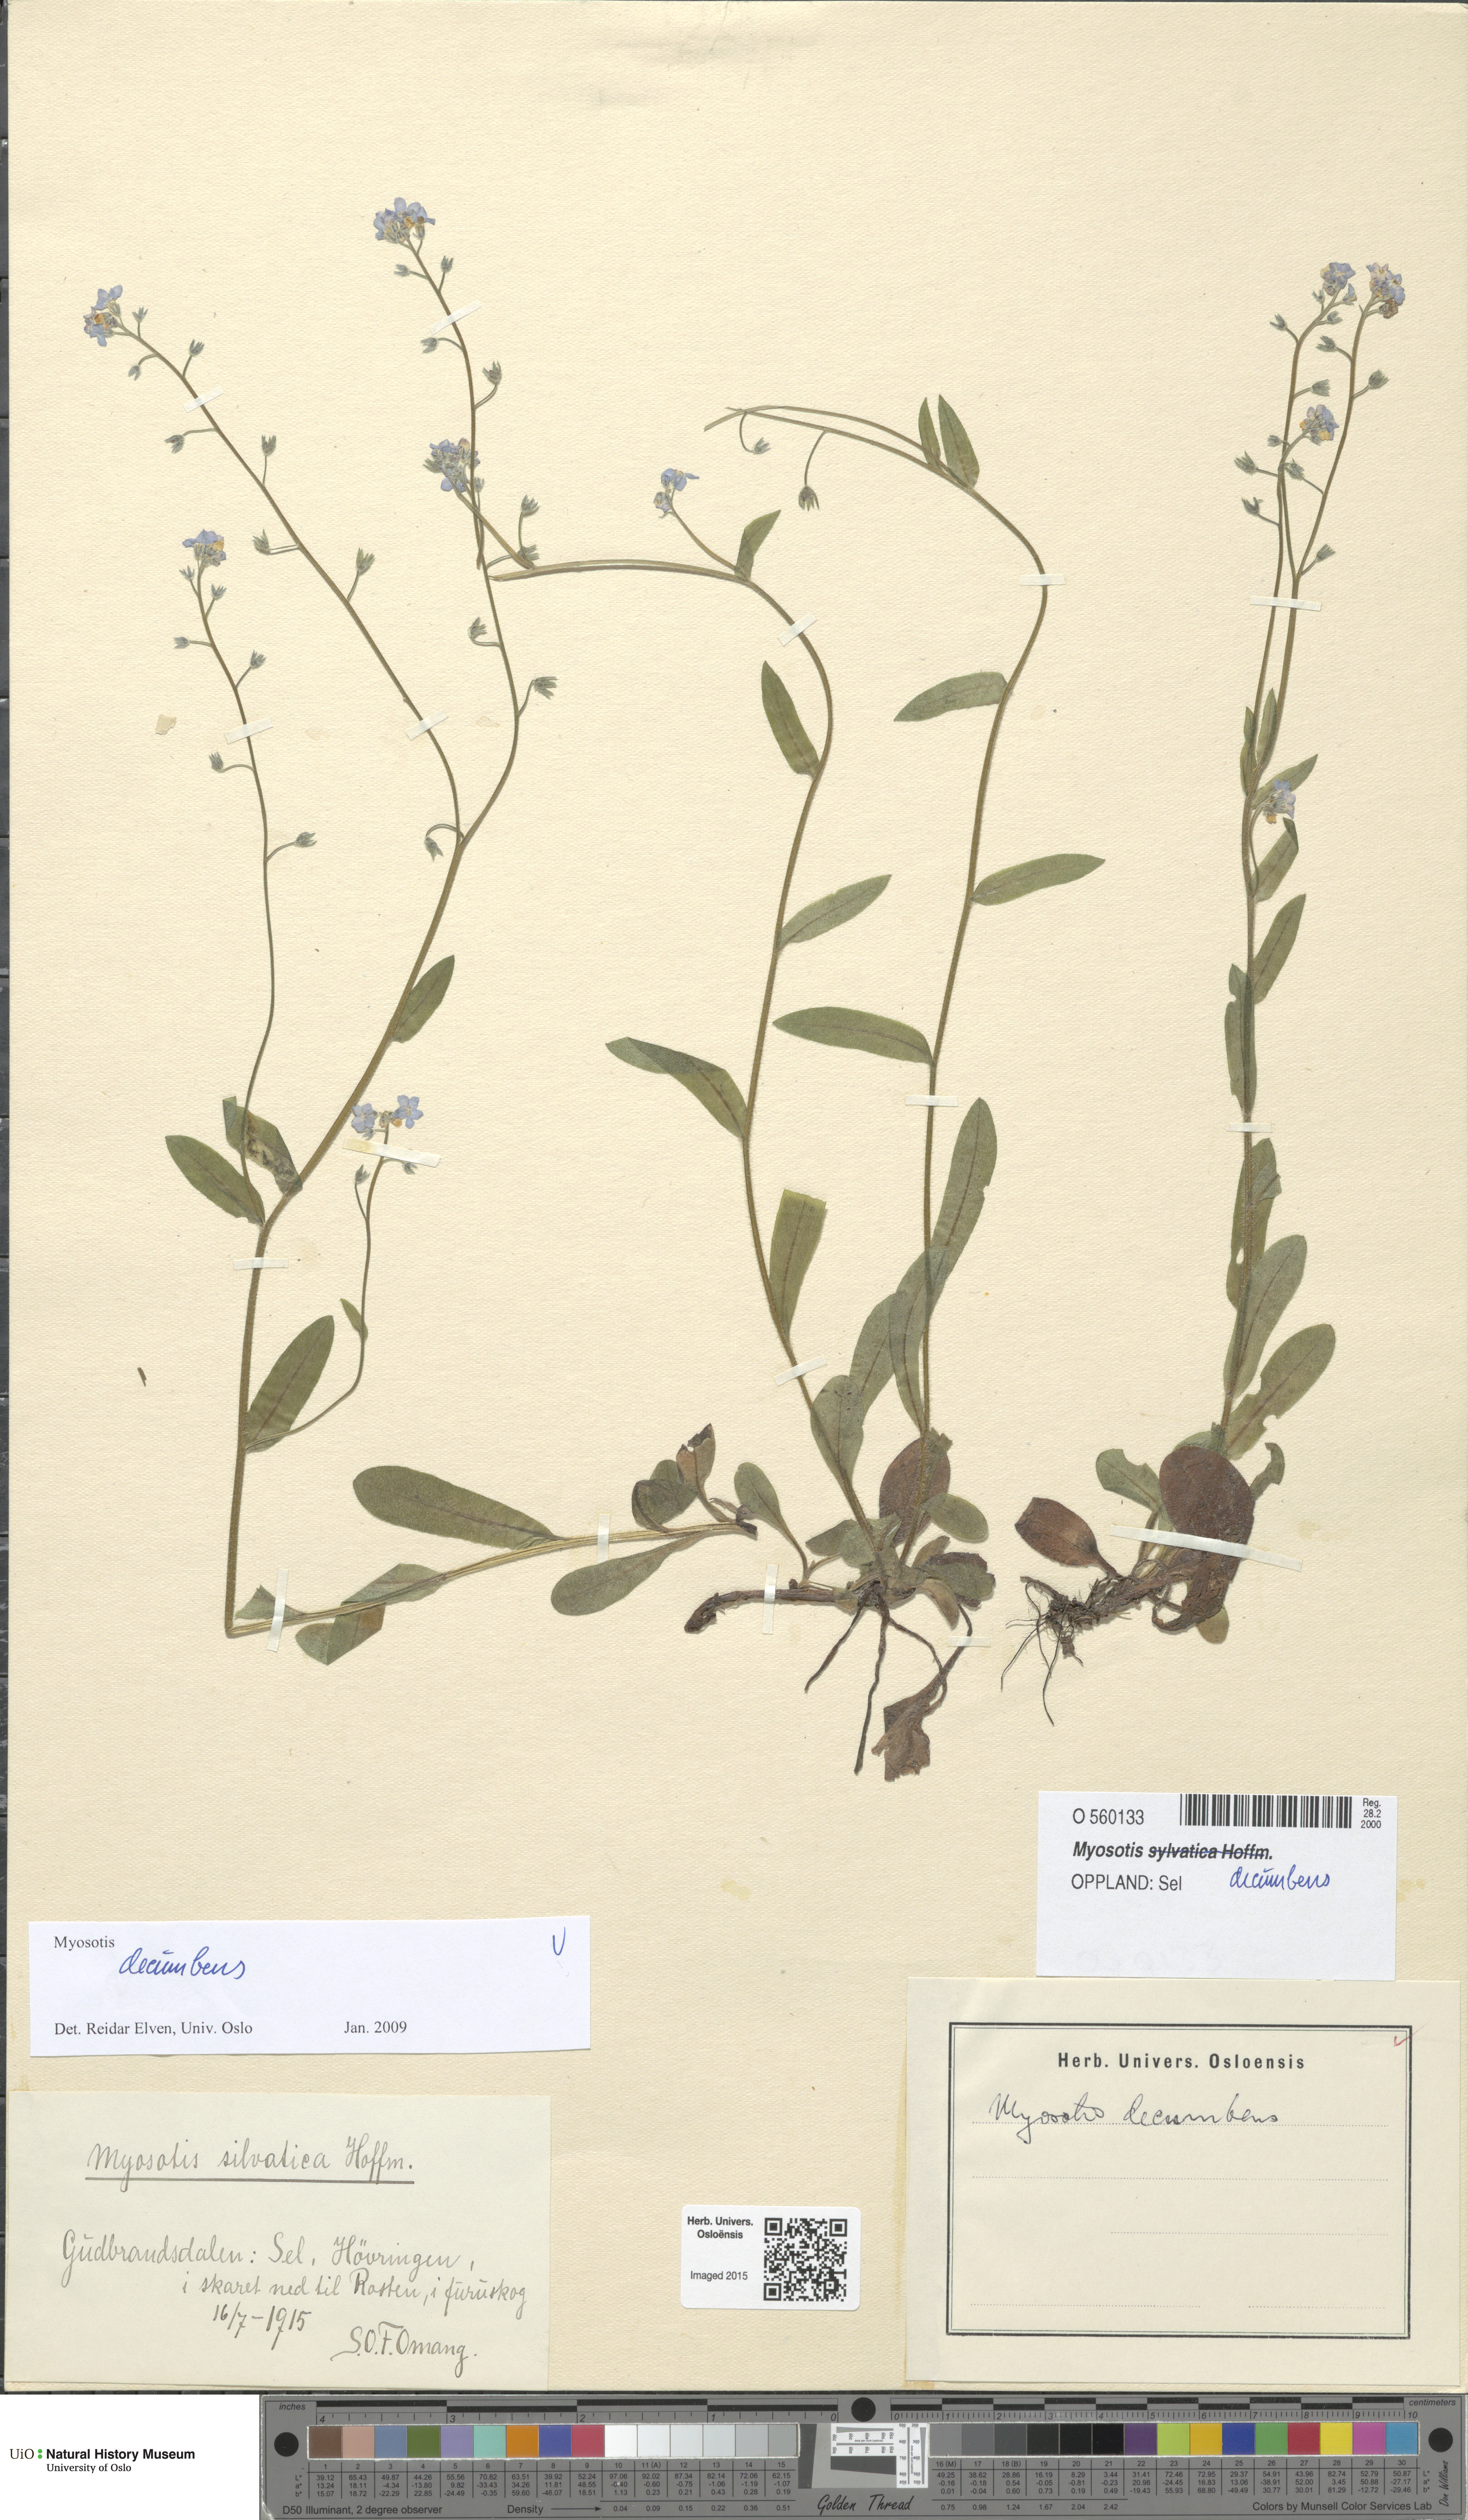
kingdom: Plantae
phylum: Tracheophyta
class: Magnoliopsida
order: Boraginales
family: Boraginaceae
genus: Myosotis
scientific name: Myosotis decumbens
